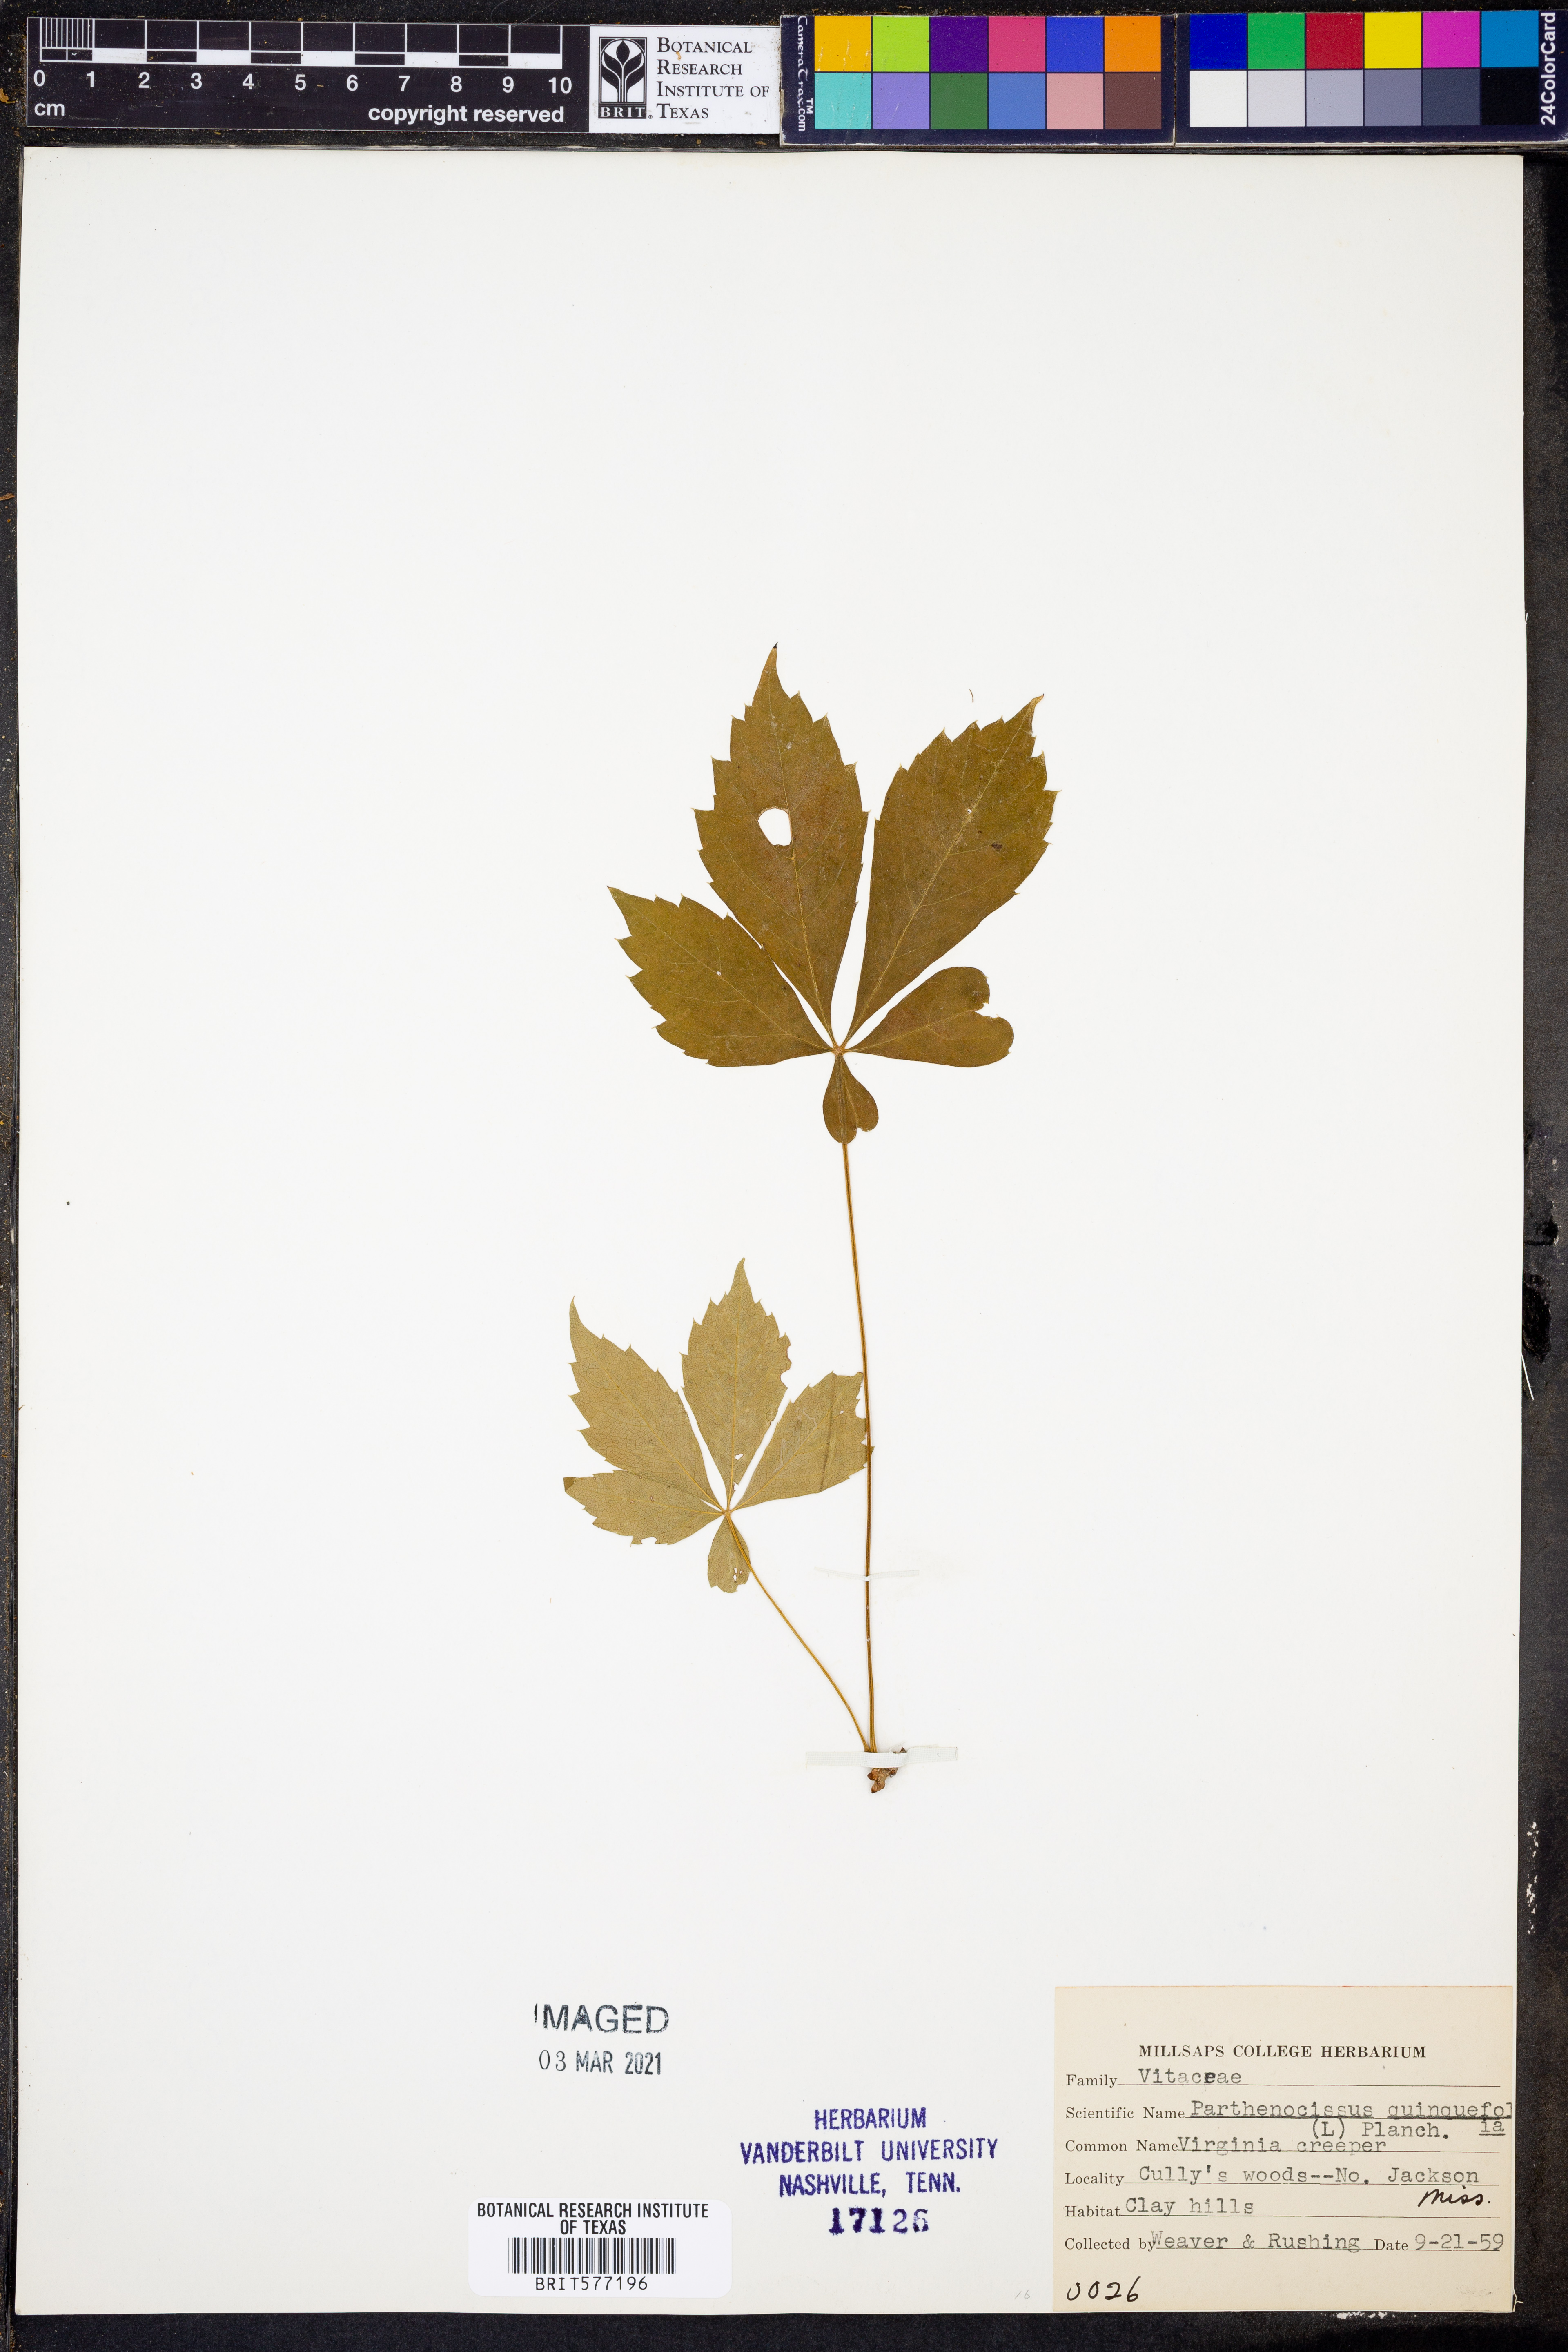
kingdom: Plantae
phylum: Tracheophyta
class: Magnoliopsida
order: Vitales
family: Vitaceae
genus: Parthenocissus
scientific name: Parthenocissus quinquefolia
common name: Virginia-creeper
